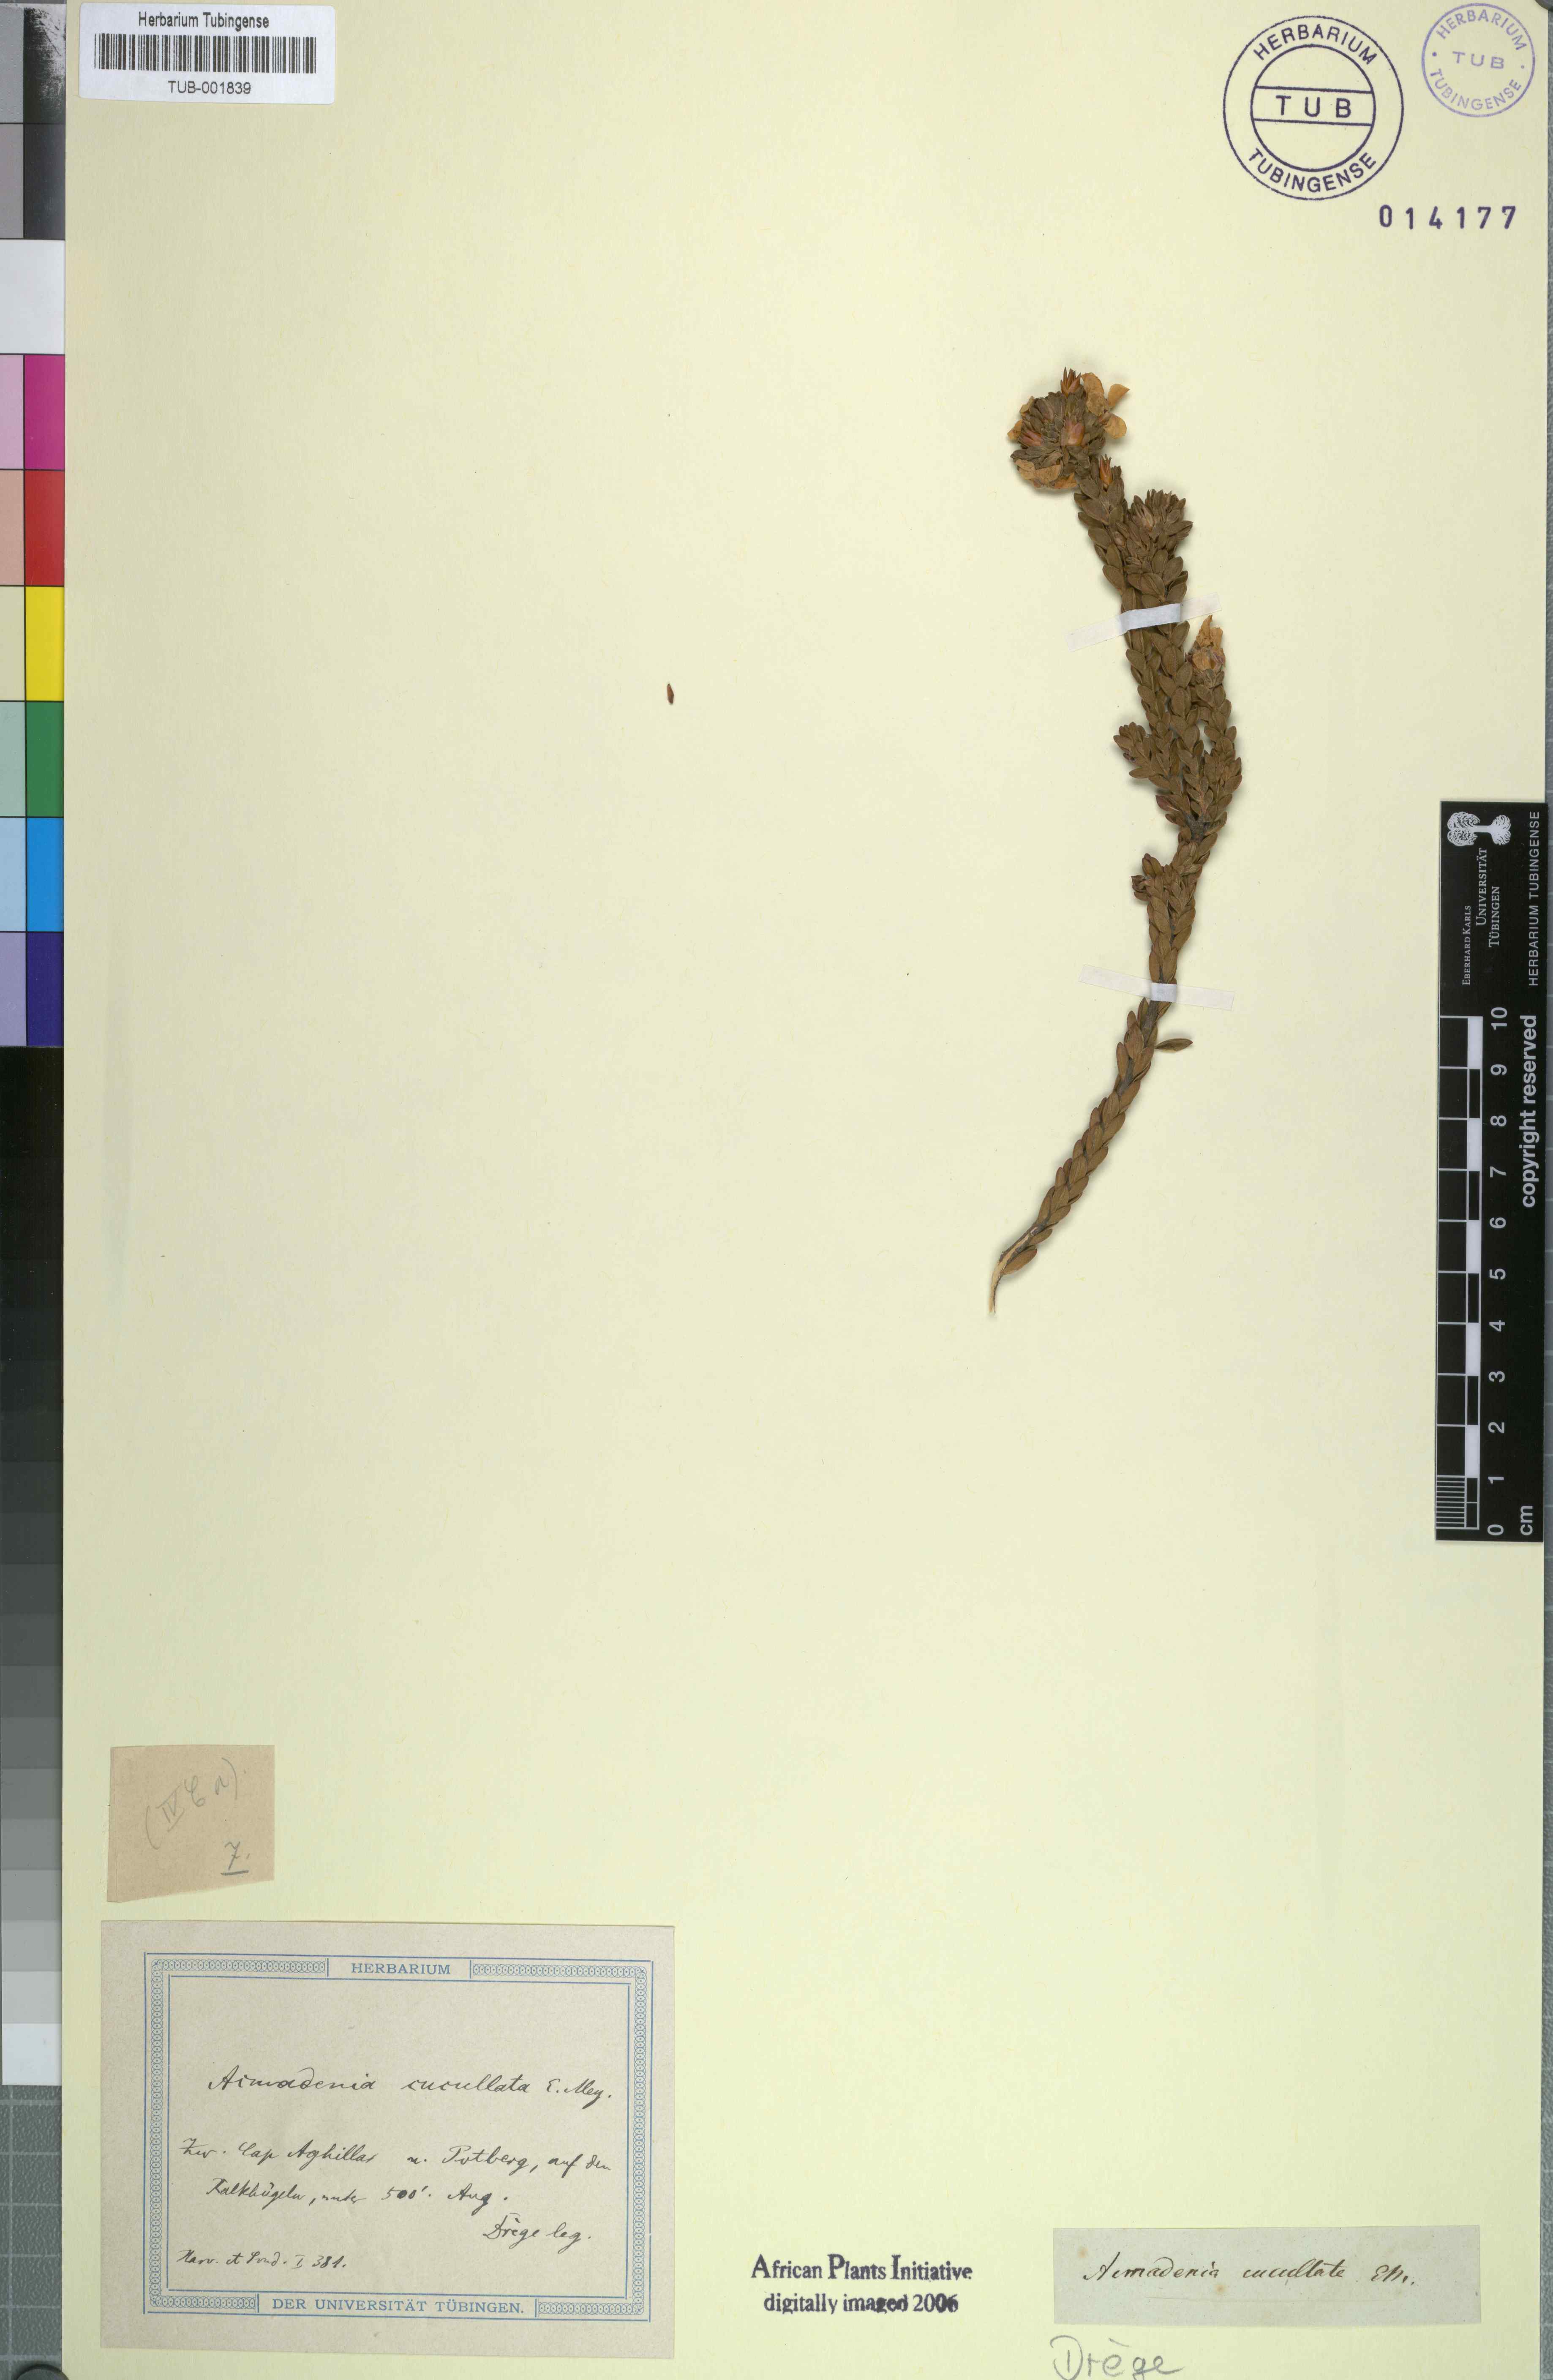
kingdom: Plantae
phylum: Tracheophyta
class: Magnoliopsida
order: Sapindales
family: Rutaceae
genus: Acmadenia
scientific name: Acmadenia mundiana
